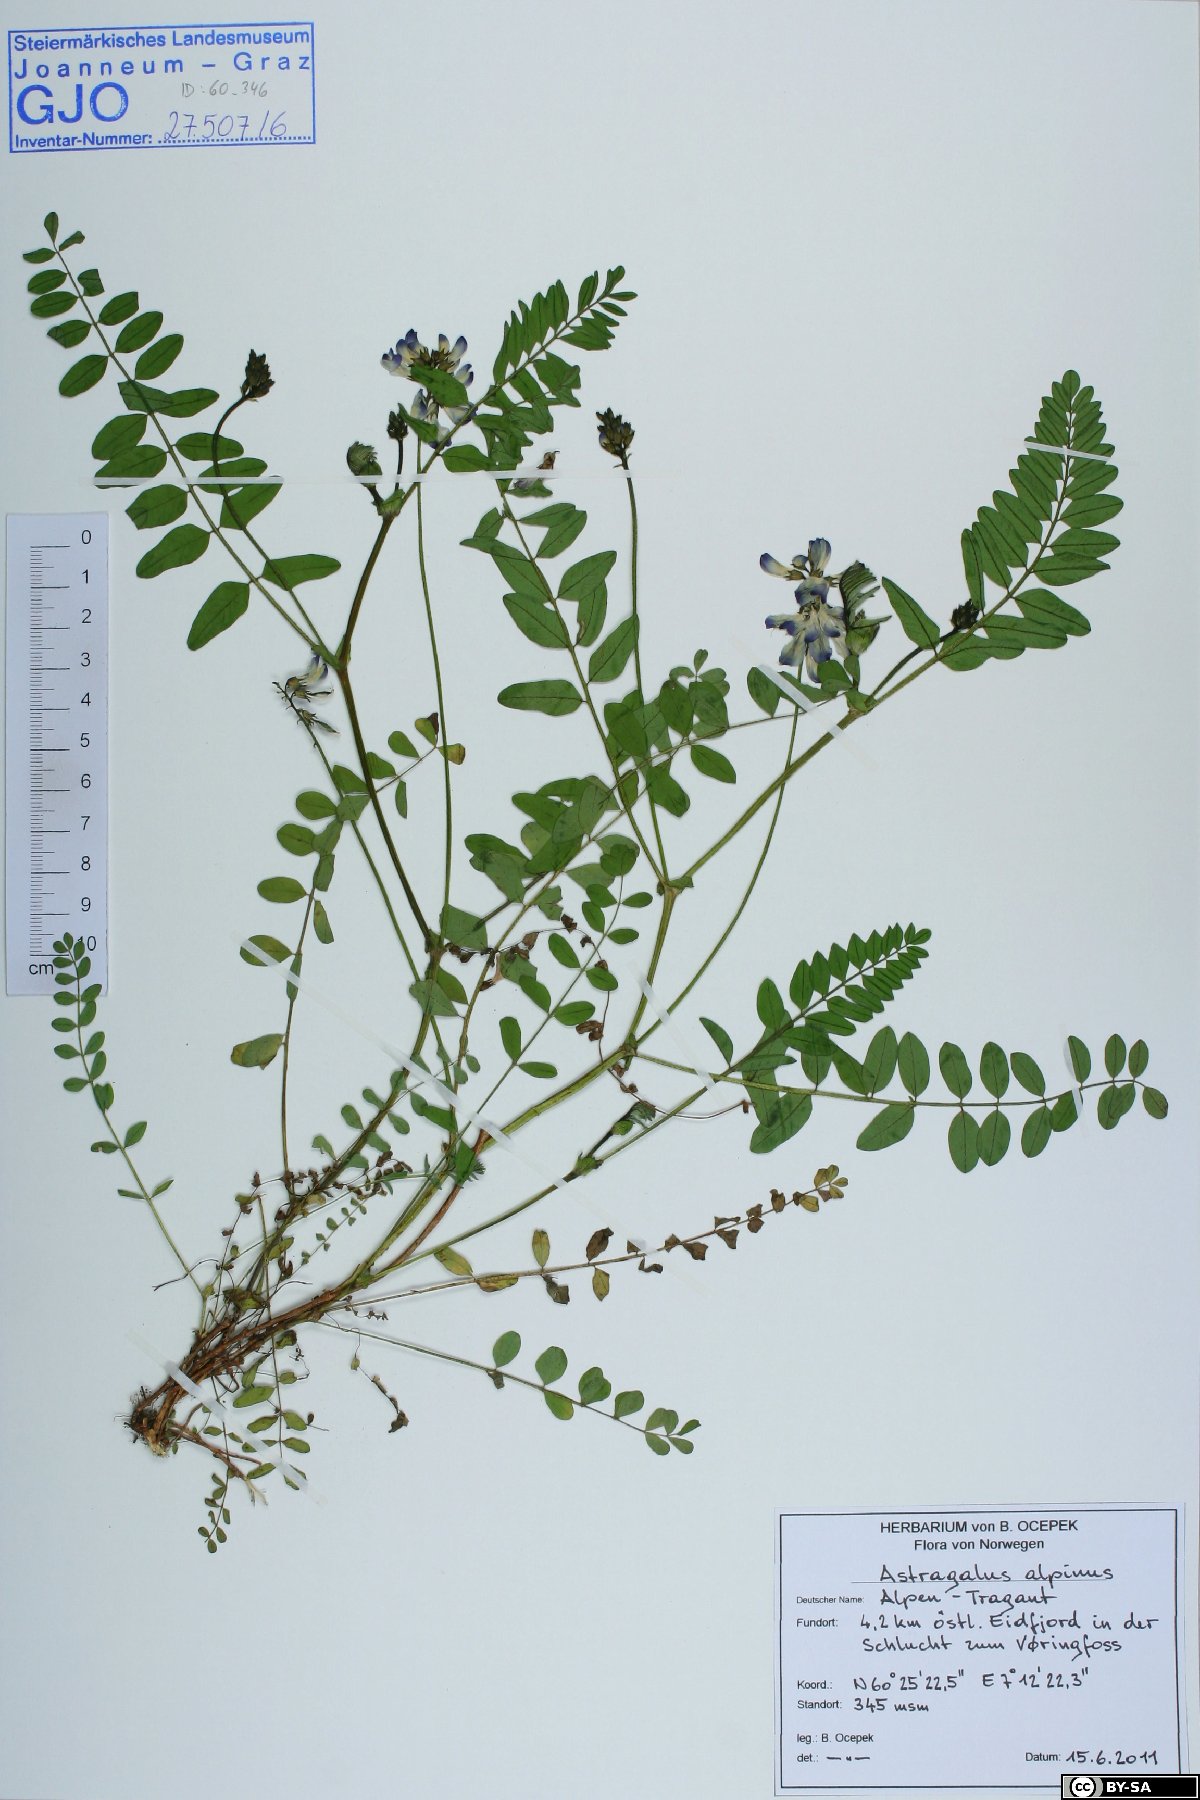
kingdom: Plantae
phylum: Tracheophyta
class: Magnoliopsida
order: Fabales
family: Fabaceae
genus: Astragalus
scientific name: Astragalus alpinus
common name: Alpine milk-vetch
